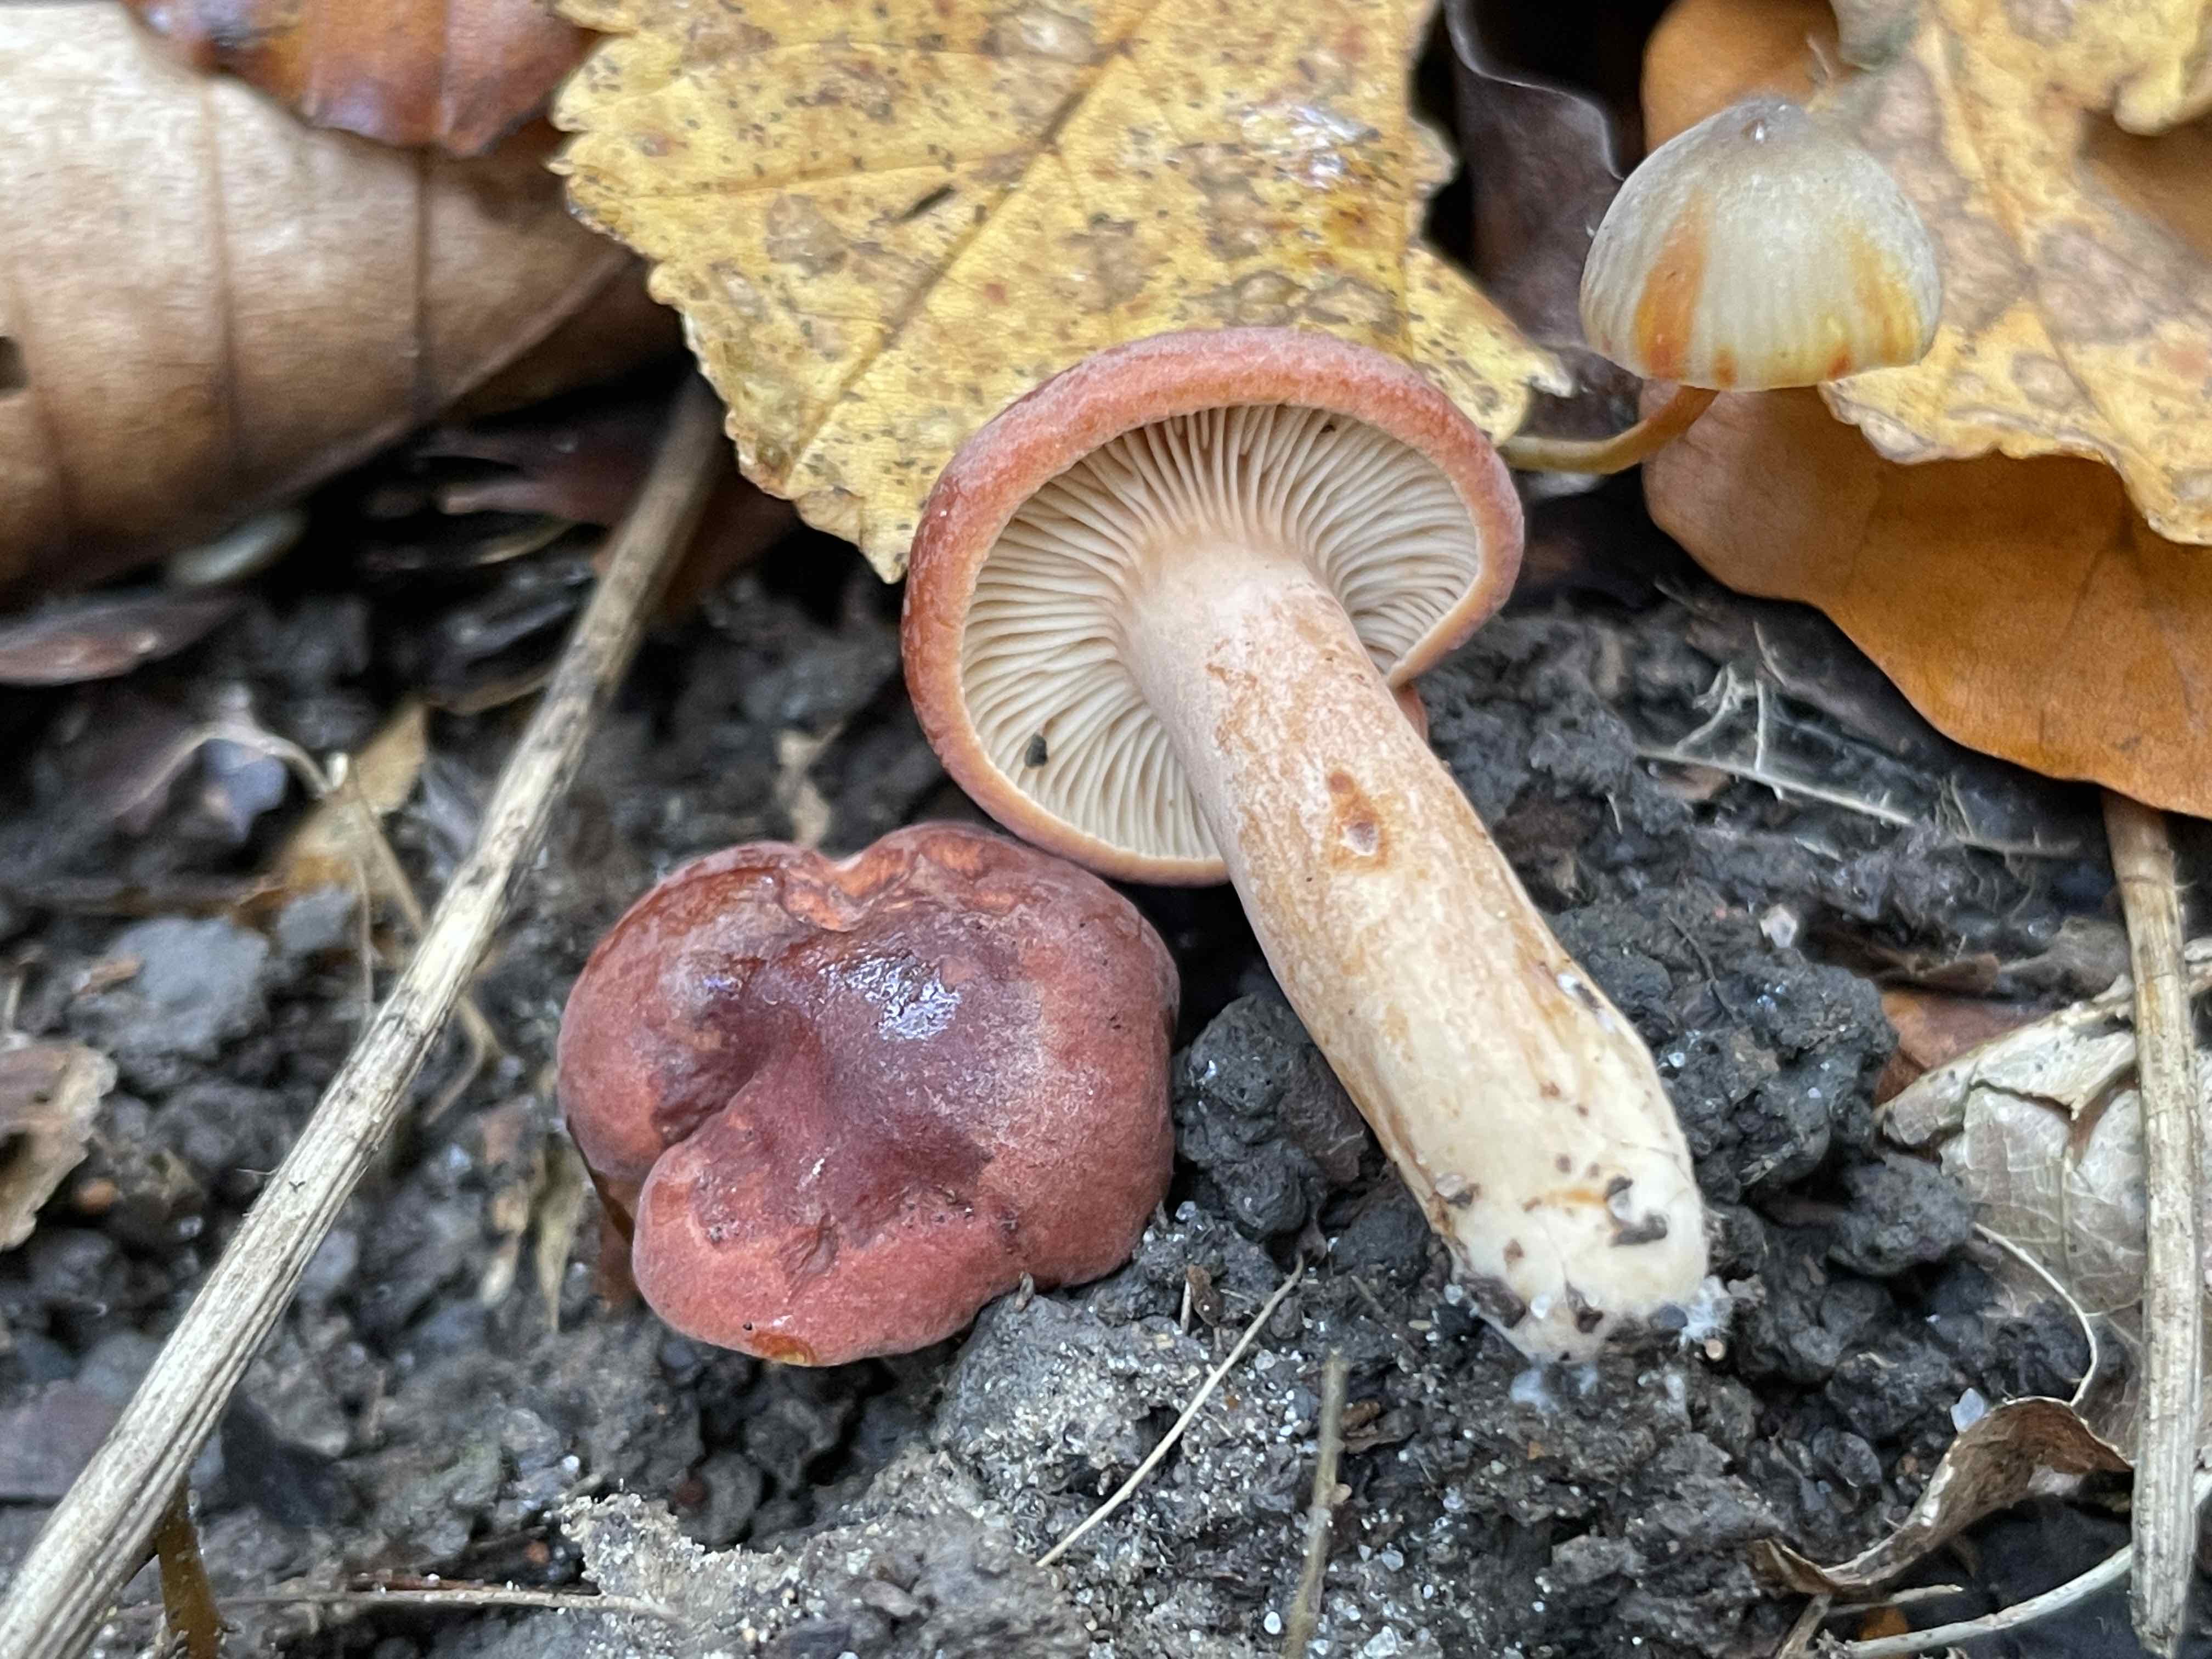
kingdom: Fungi
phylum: Basidiomycota
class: Agaricomycetes
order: Russulales
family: Russulaceae
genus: Lactarius
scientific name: Lactarius fulvissimus
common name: ræve-mælkehat
